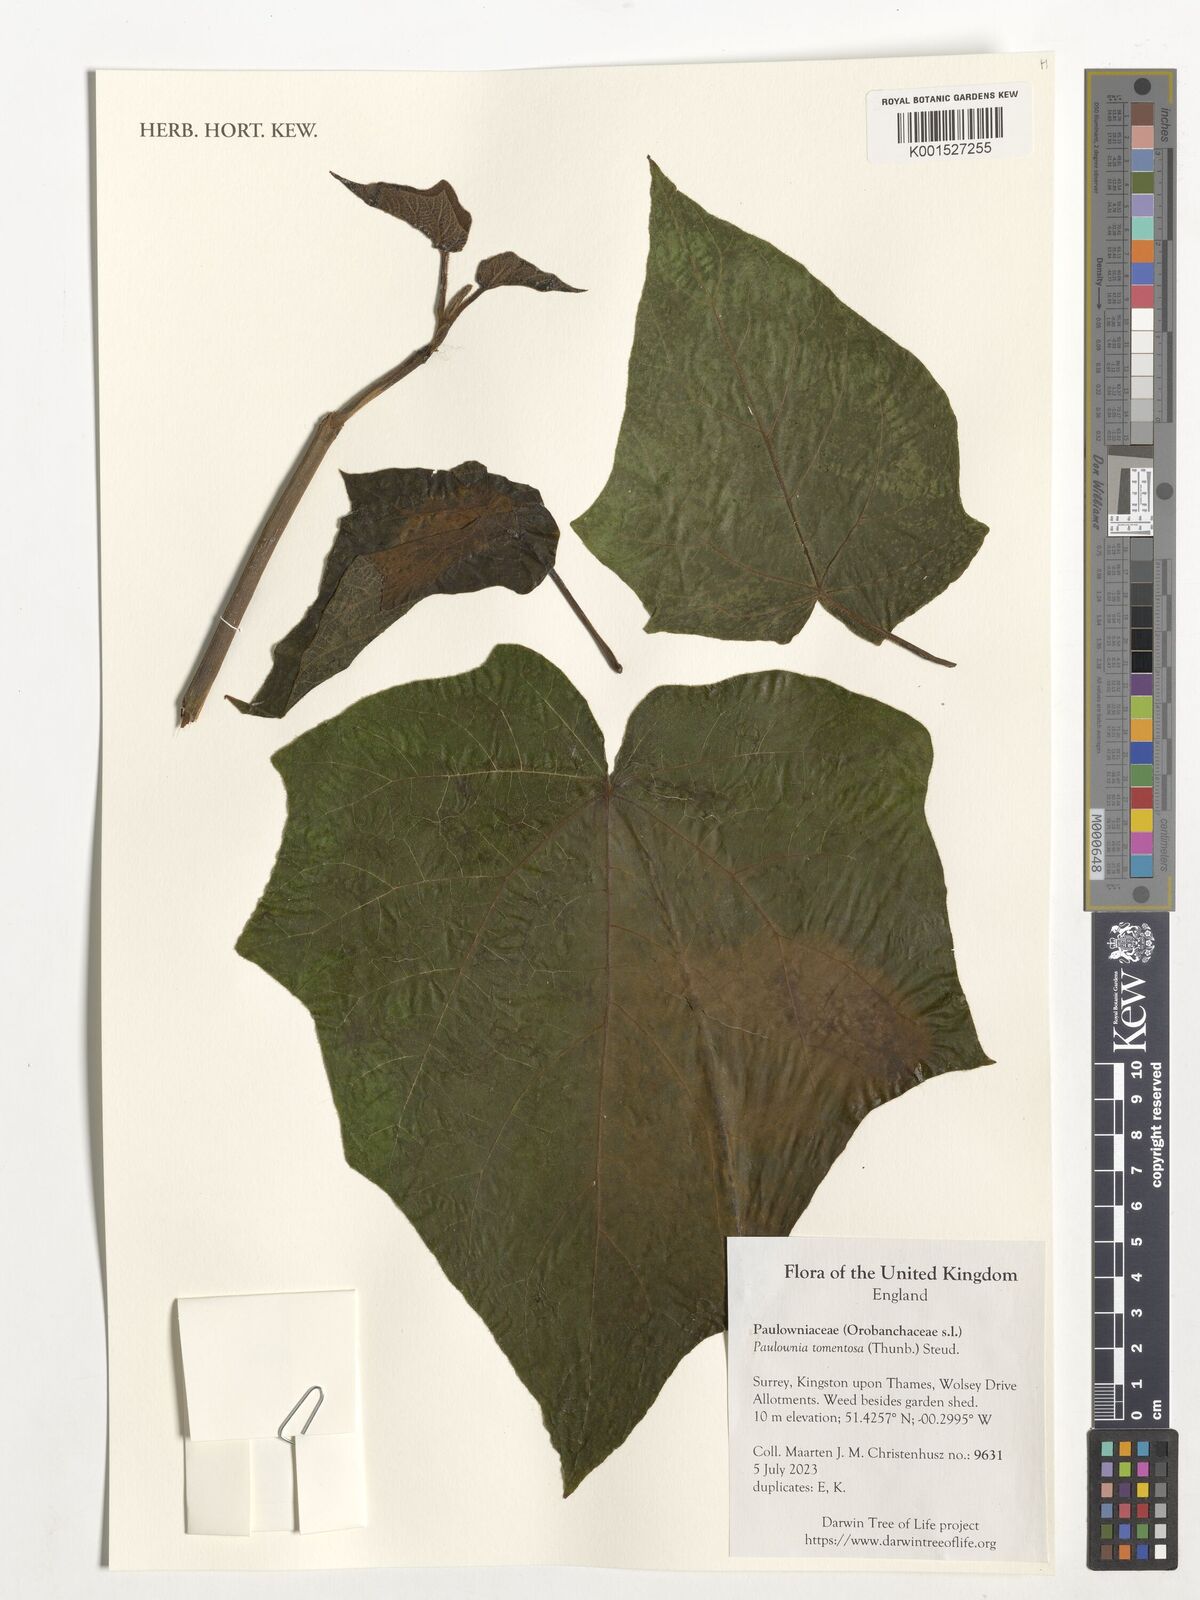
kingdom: Plantae
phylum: Tracheophyta
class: Magnoliopsida
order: Lamiales
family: Paulowniaceae
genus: Paulownia
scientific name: Paulownia tomentosa
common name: Foxglove-tree
